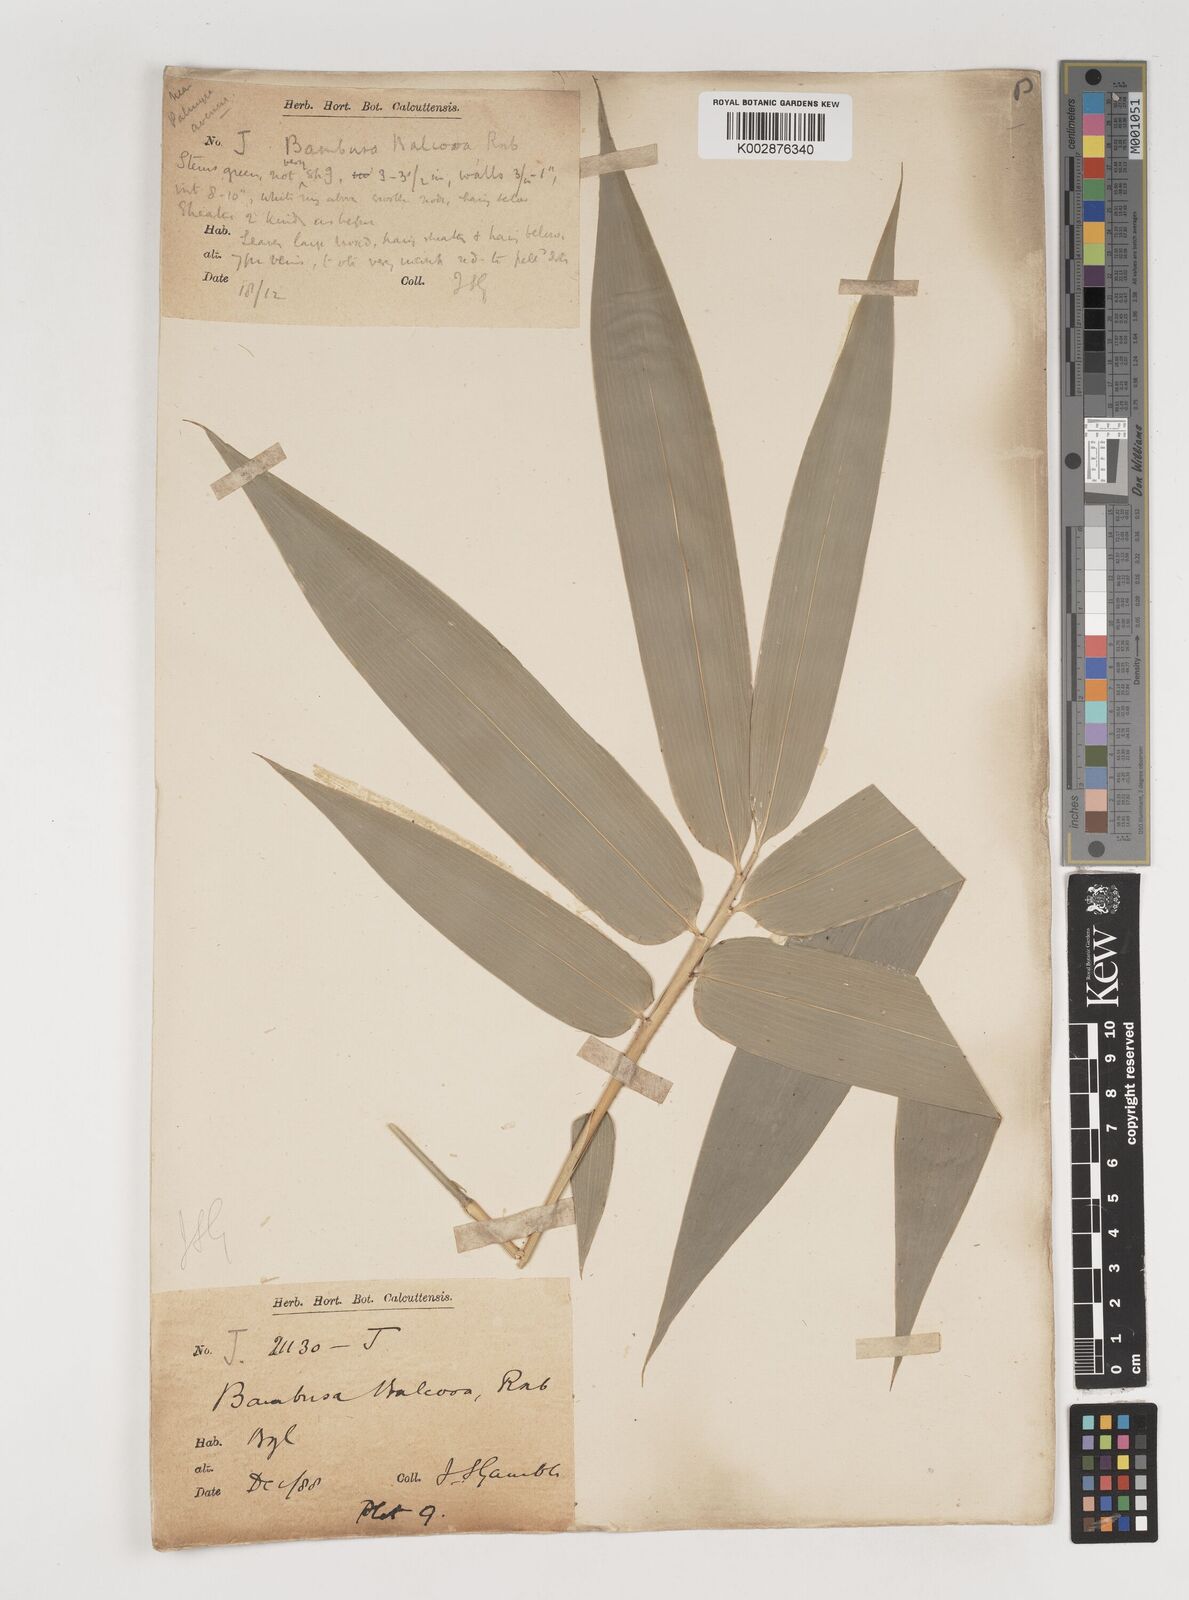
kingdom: Plantae
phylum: Tracheophyta
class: Liliopsida
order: Poales
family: Poaceae
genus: Bambusa
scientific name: Bambusa balcooa
